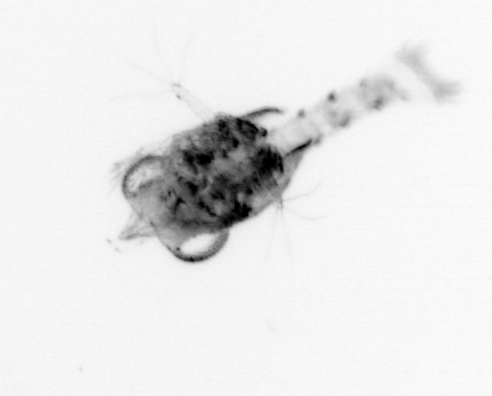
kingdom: Animalia
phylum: Arthropoda
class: Malacostraca
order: Decapoda
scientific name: Decapoda
